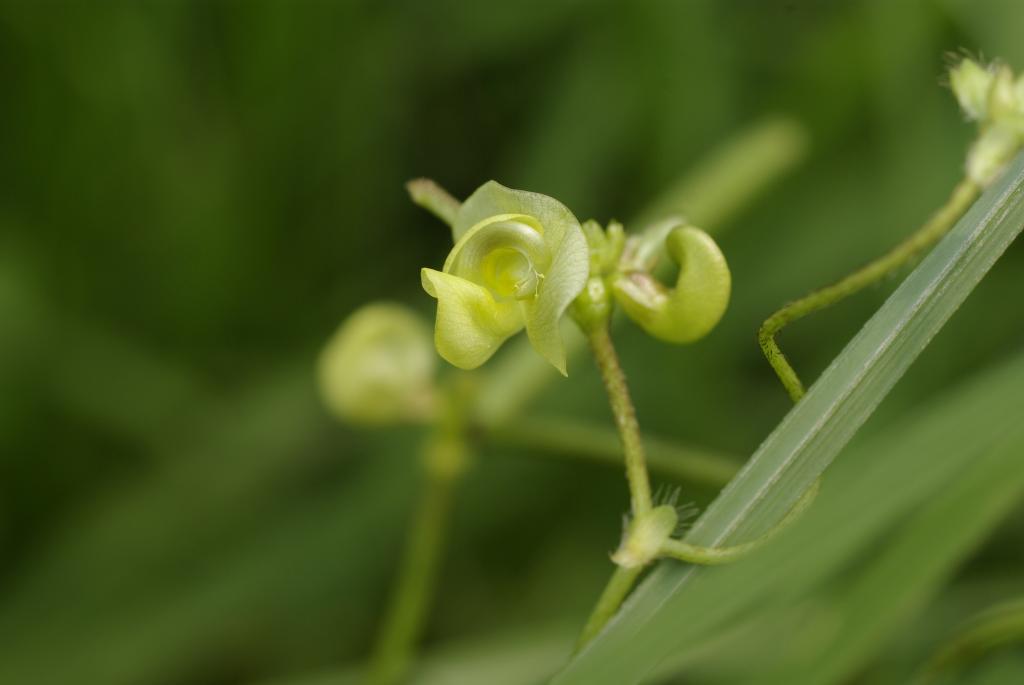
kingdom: Plantae
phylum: Tracheophyta
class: Magnoliopsida
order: Fabales
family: Fabaceae
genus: Vigna
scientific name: Vigna radiata
